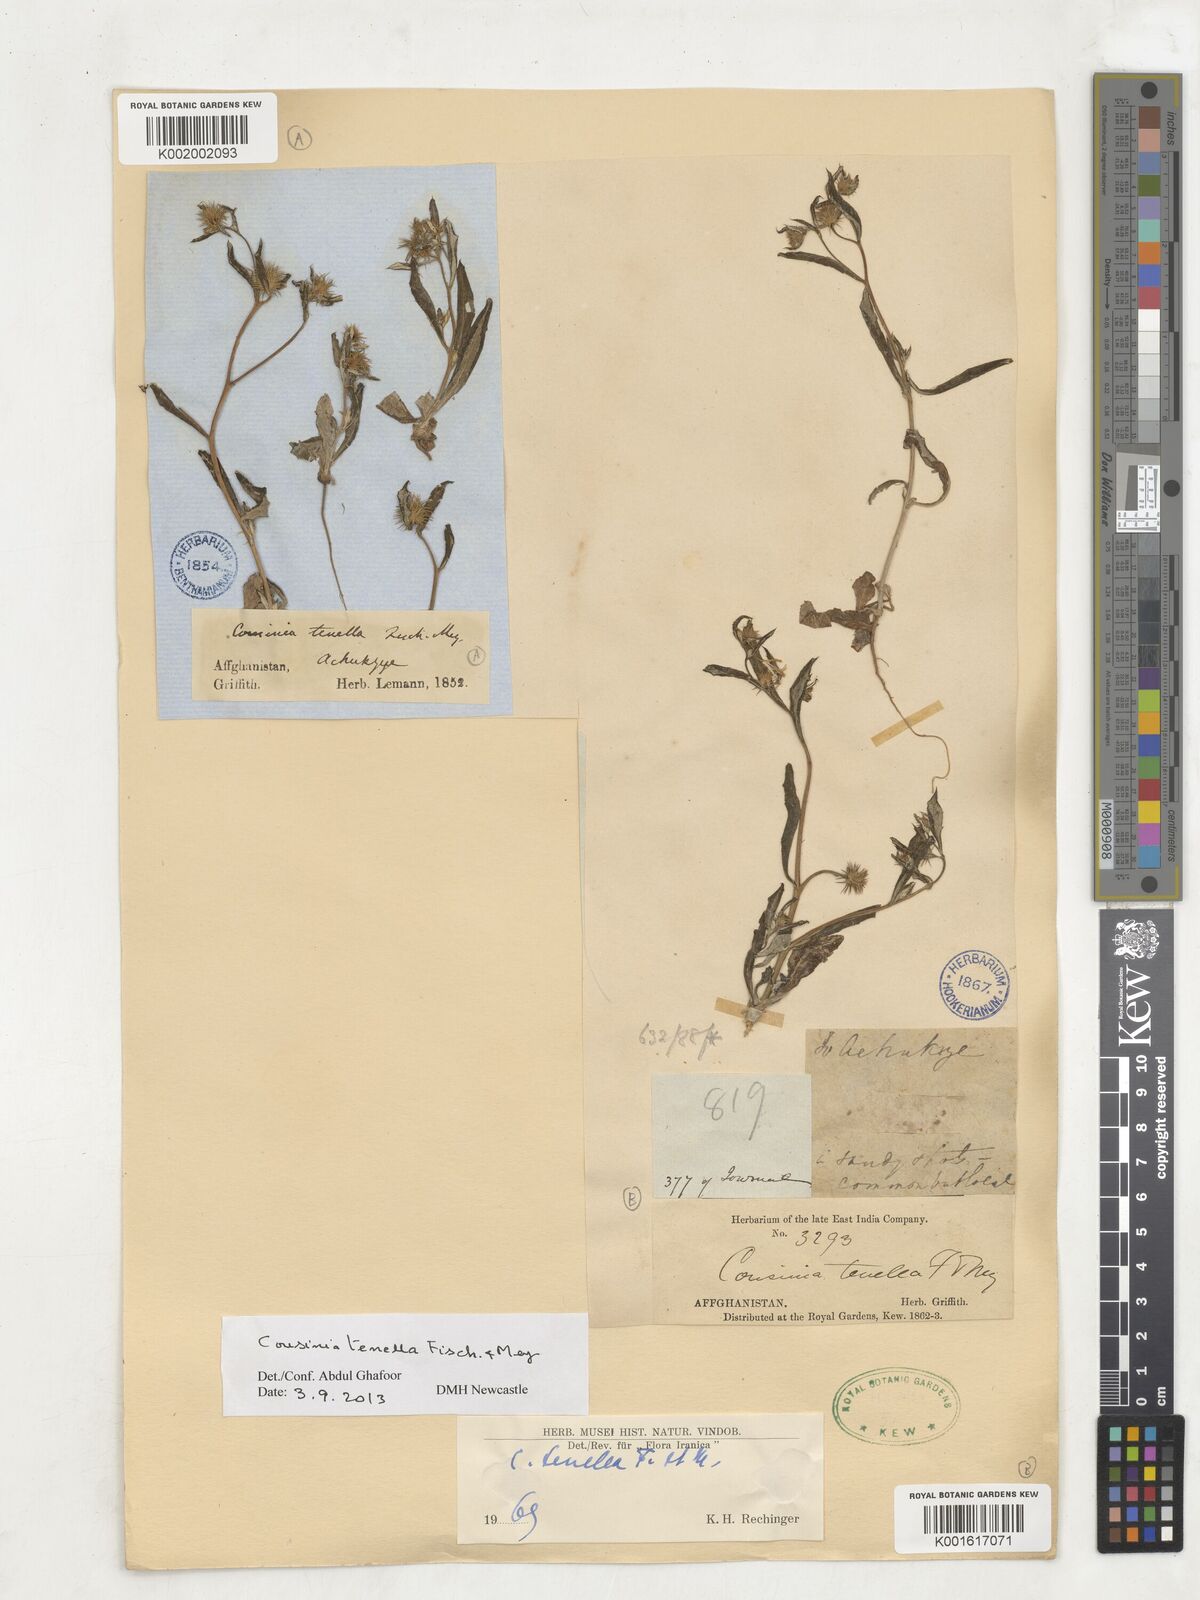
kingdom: Plantae
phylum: Tracheophyta
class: Magnoliopsida
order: Asterales
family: Asteraceae
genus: Cousinia
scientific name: Cousinia tenella
